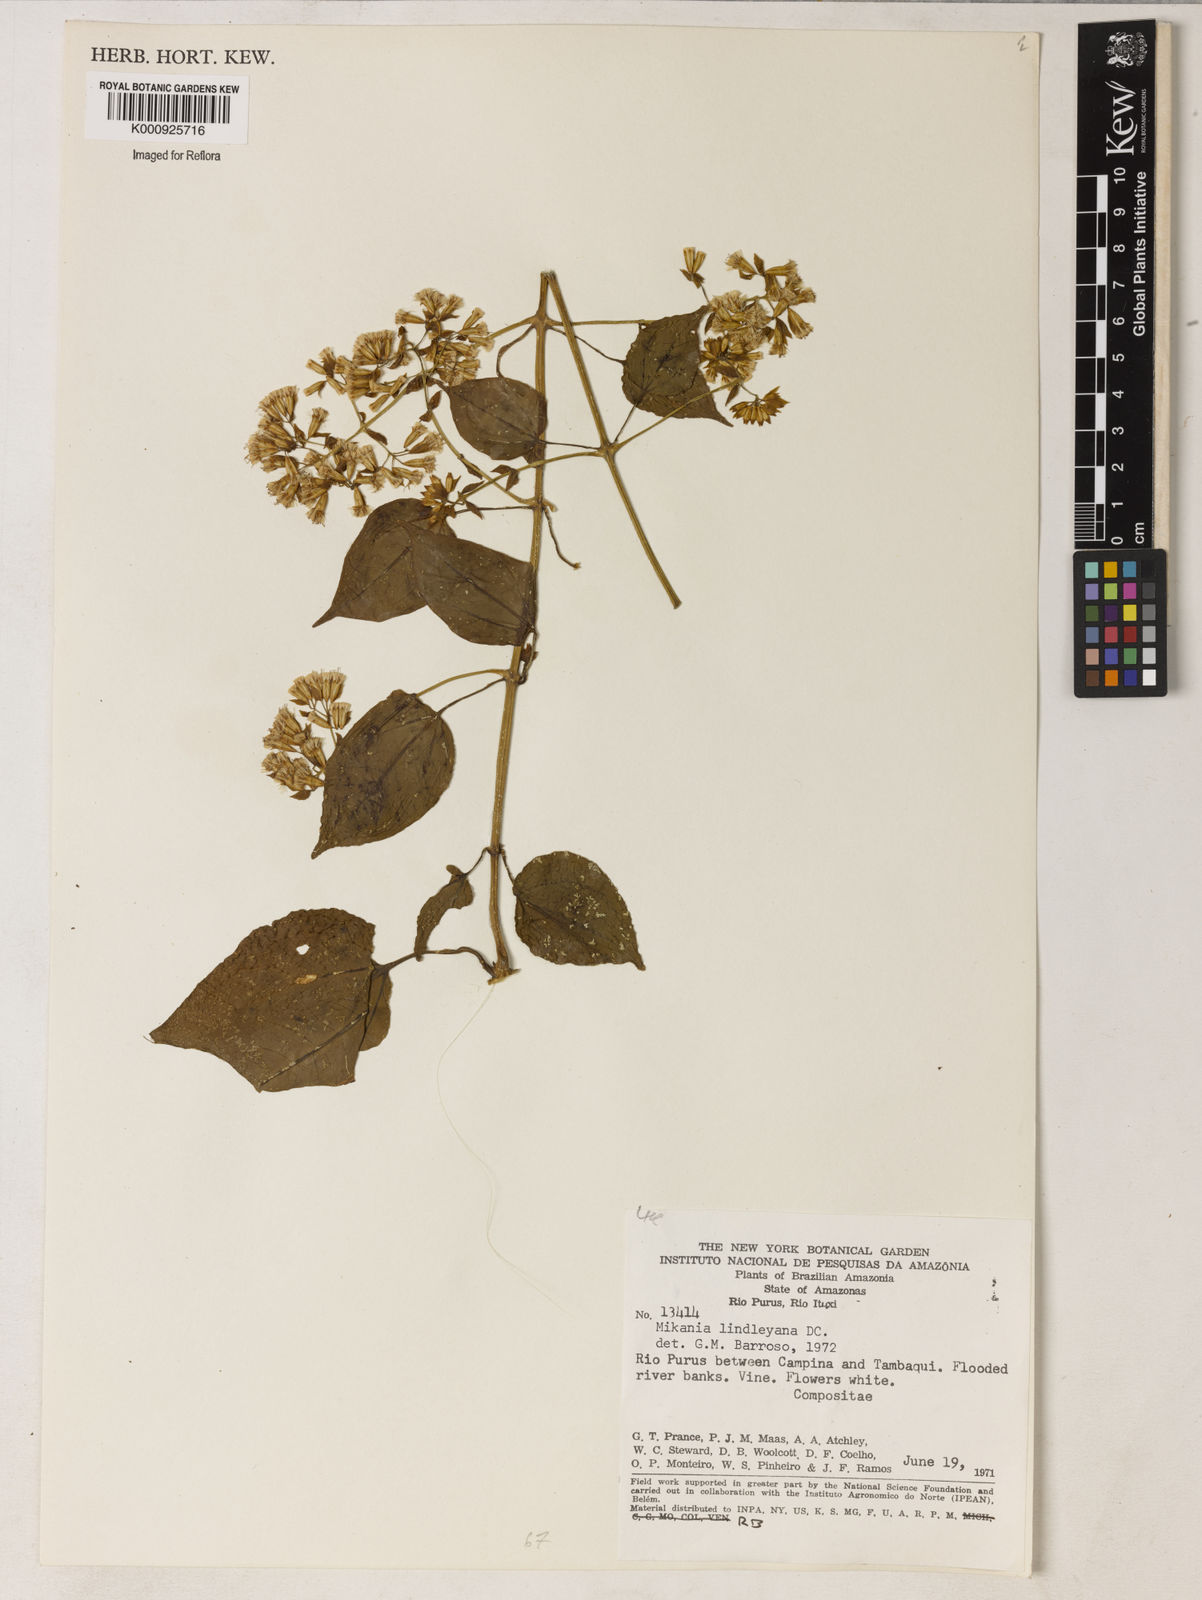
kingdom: Plantae
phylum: Tracheophyta
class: Magnoliopsida
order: Asterales
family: Asteraceae
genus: Mikania
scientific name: Mikania lindleyana
